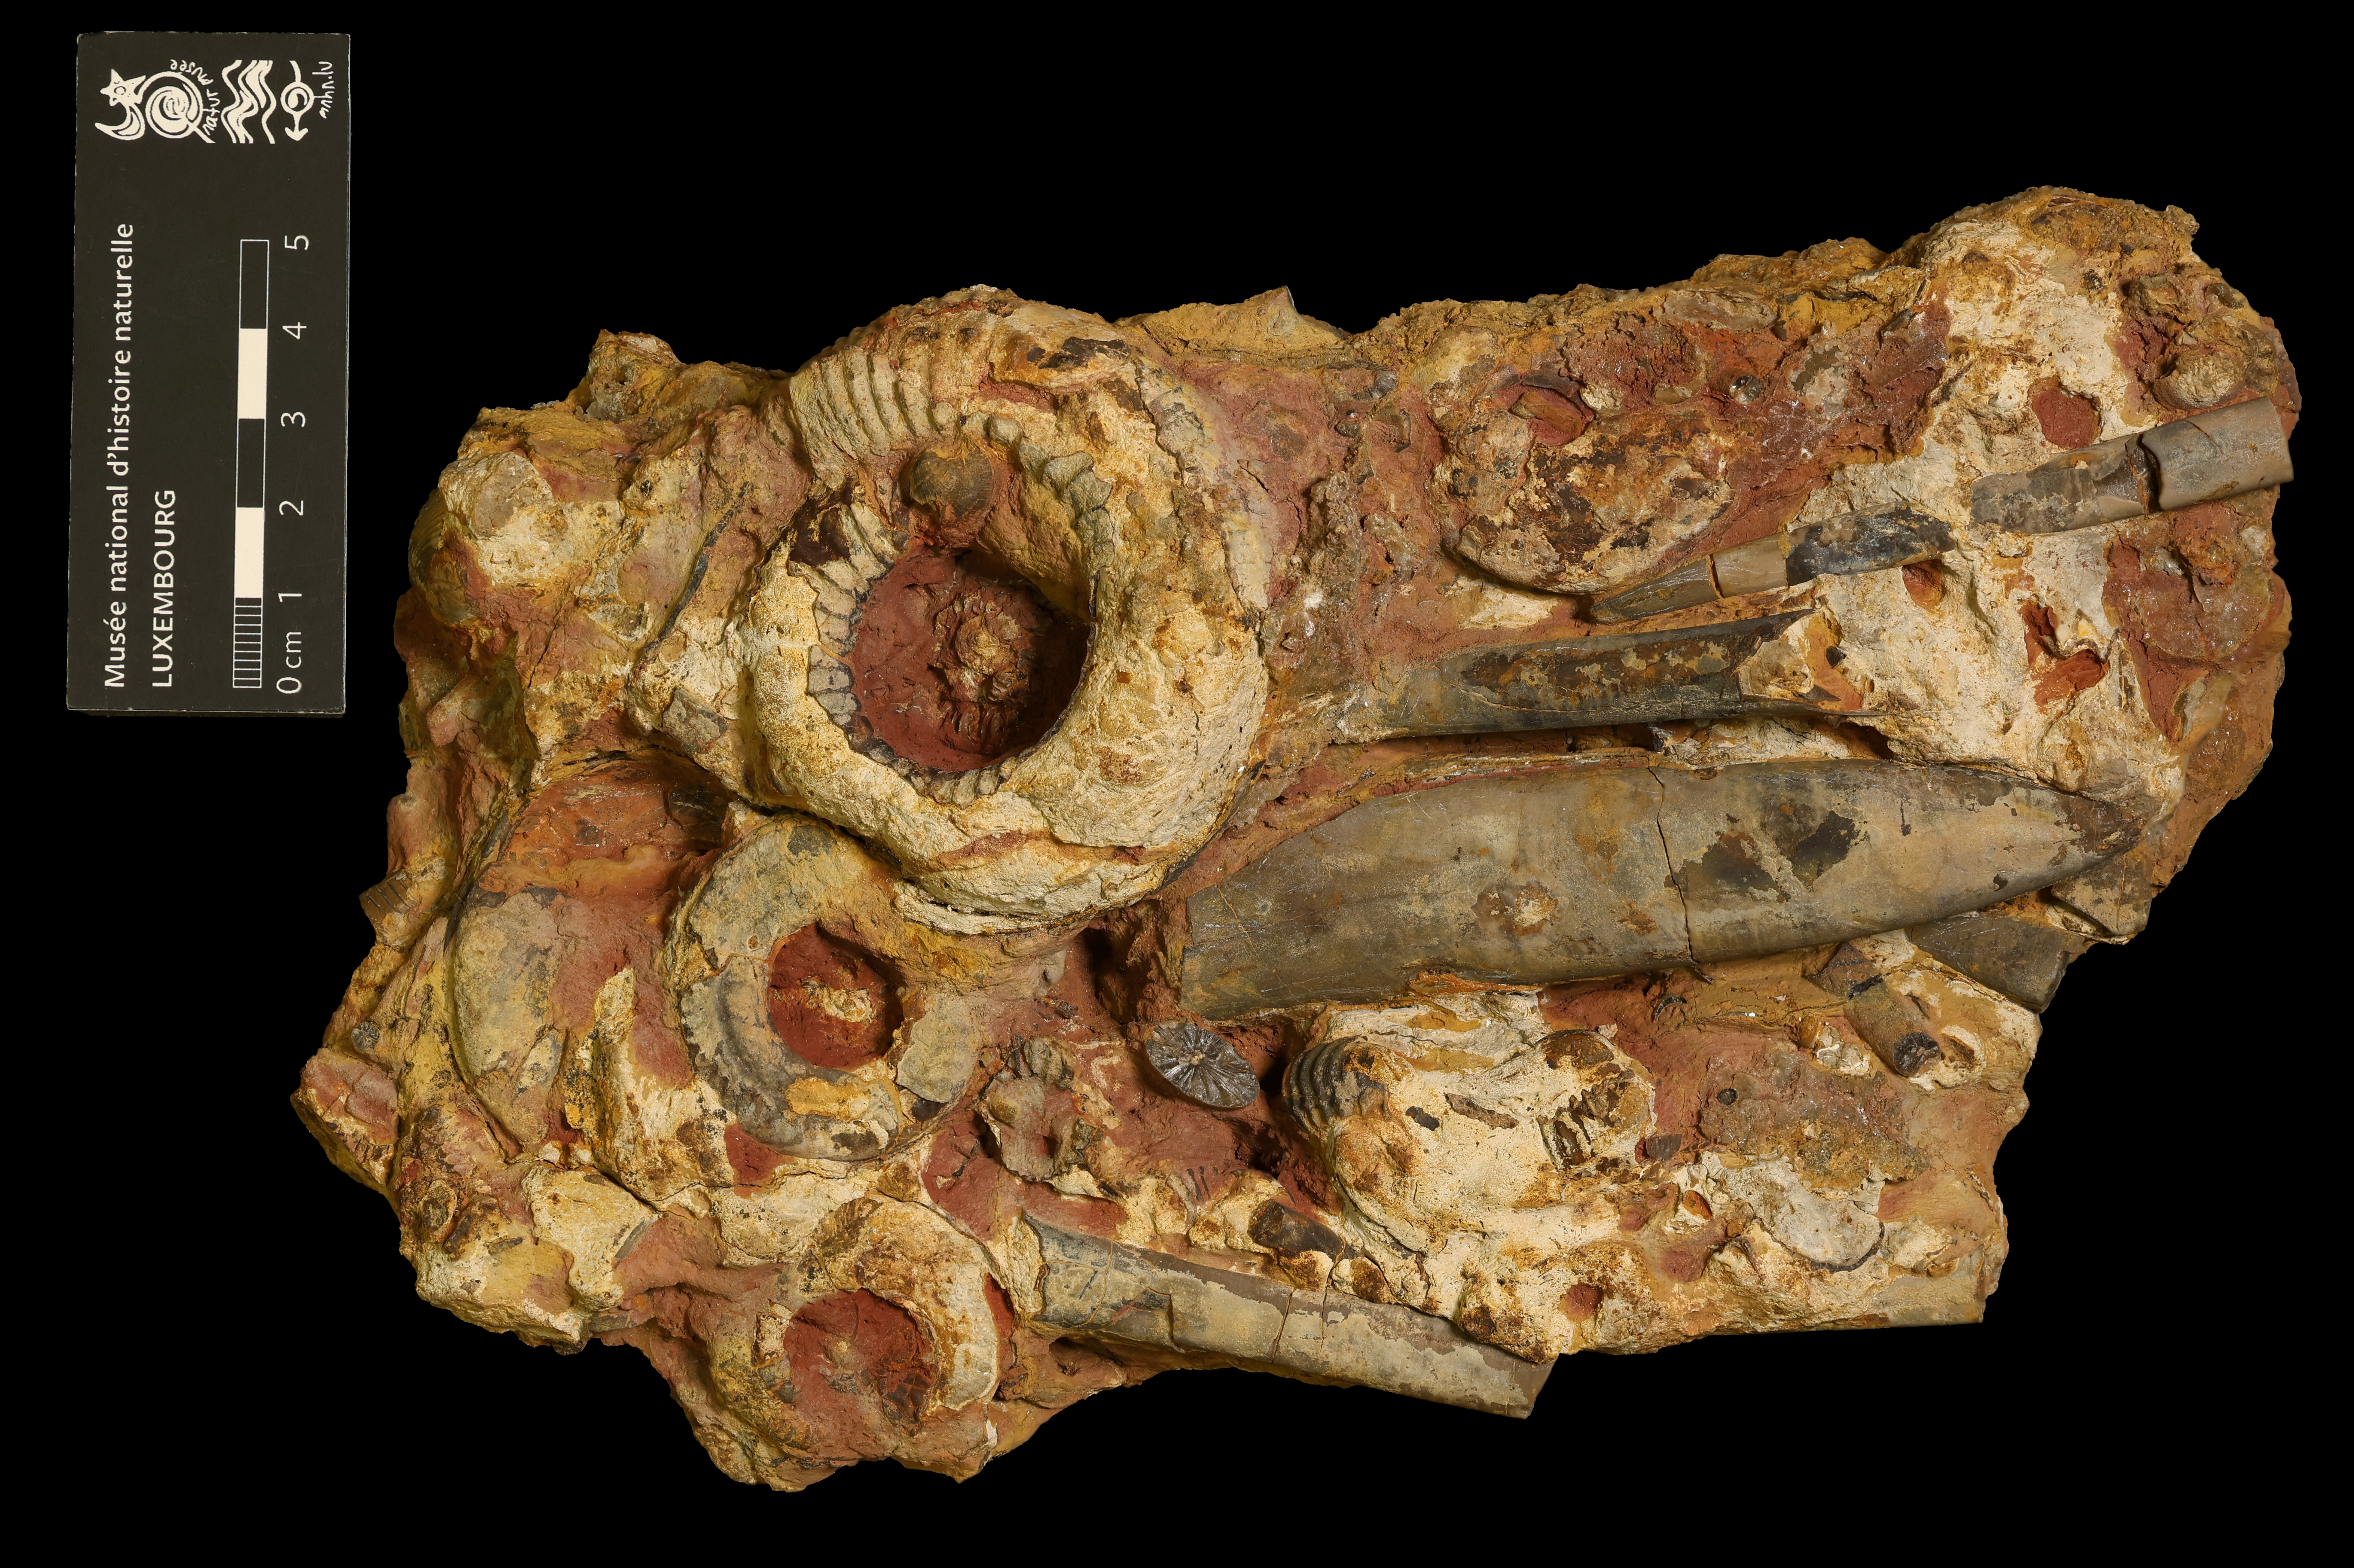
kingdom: Animalia
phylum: Mollusca
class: Cephalopoda
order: Belemnitida
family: Megateuthididae
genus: Acrocoelites
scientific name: Acrocoelites levidensis
